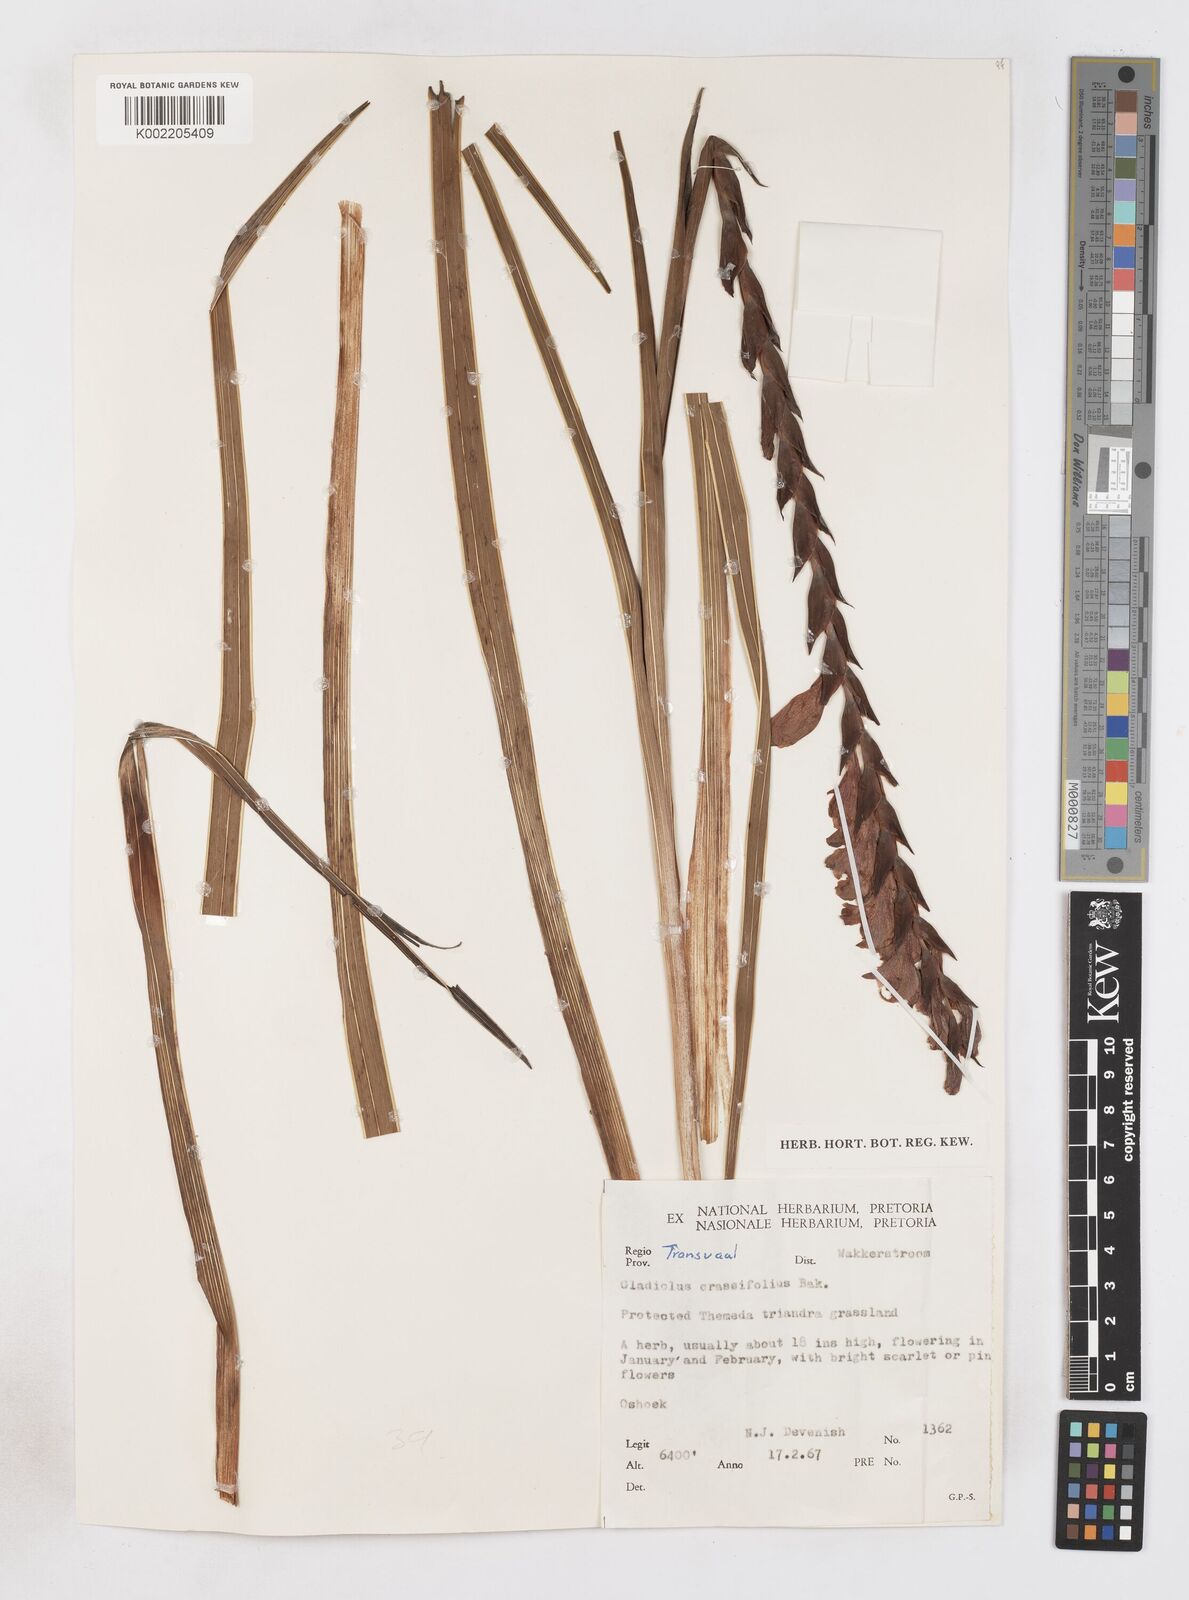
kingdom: Plantae
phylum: Tracheophyta
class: Liliopsida
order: Asparagales
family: Iridaceae
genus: Gladiolus
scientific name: Gladiolus densiflorus
